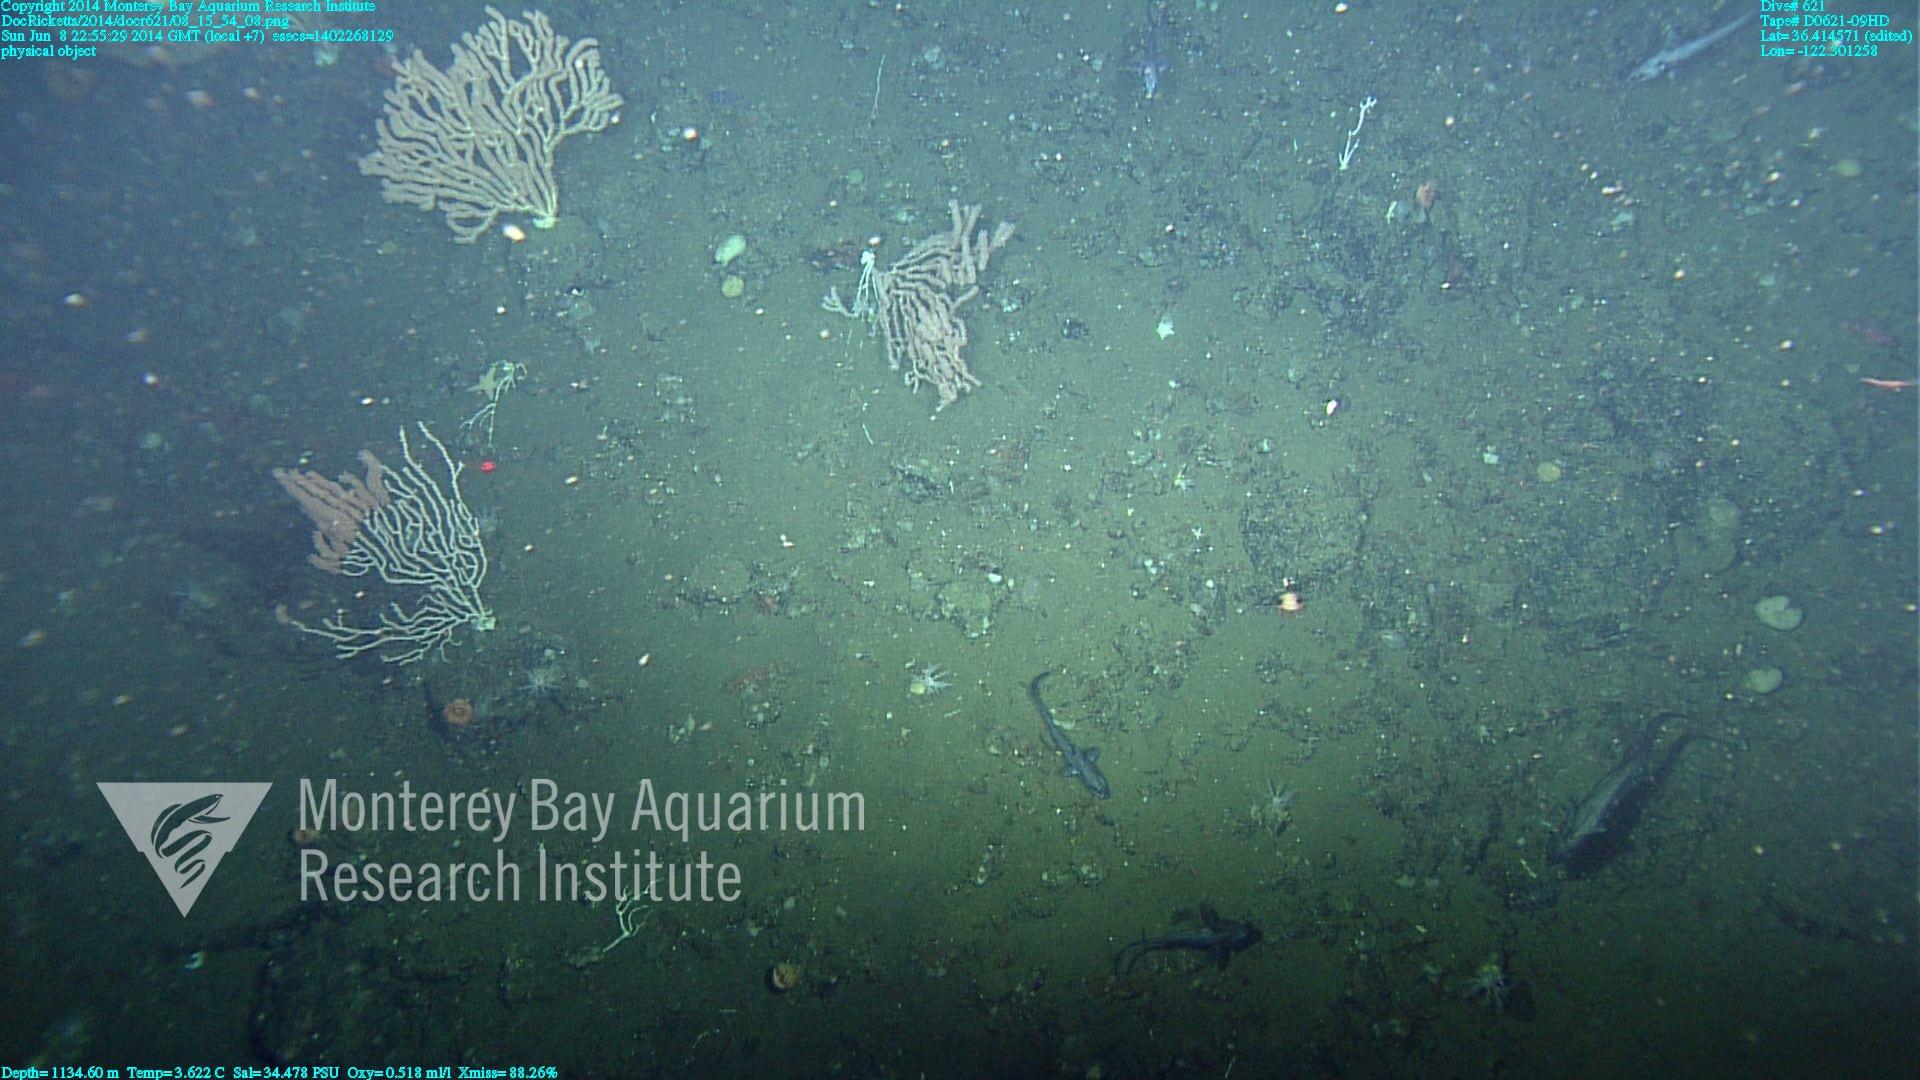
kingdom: Animalia
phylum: Cnidaria
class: Anthozoa
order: Scleralcyonacea
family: Keratoisididae
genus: Keratoisis
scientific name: Keratoisis
